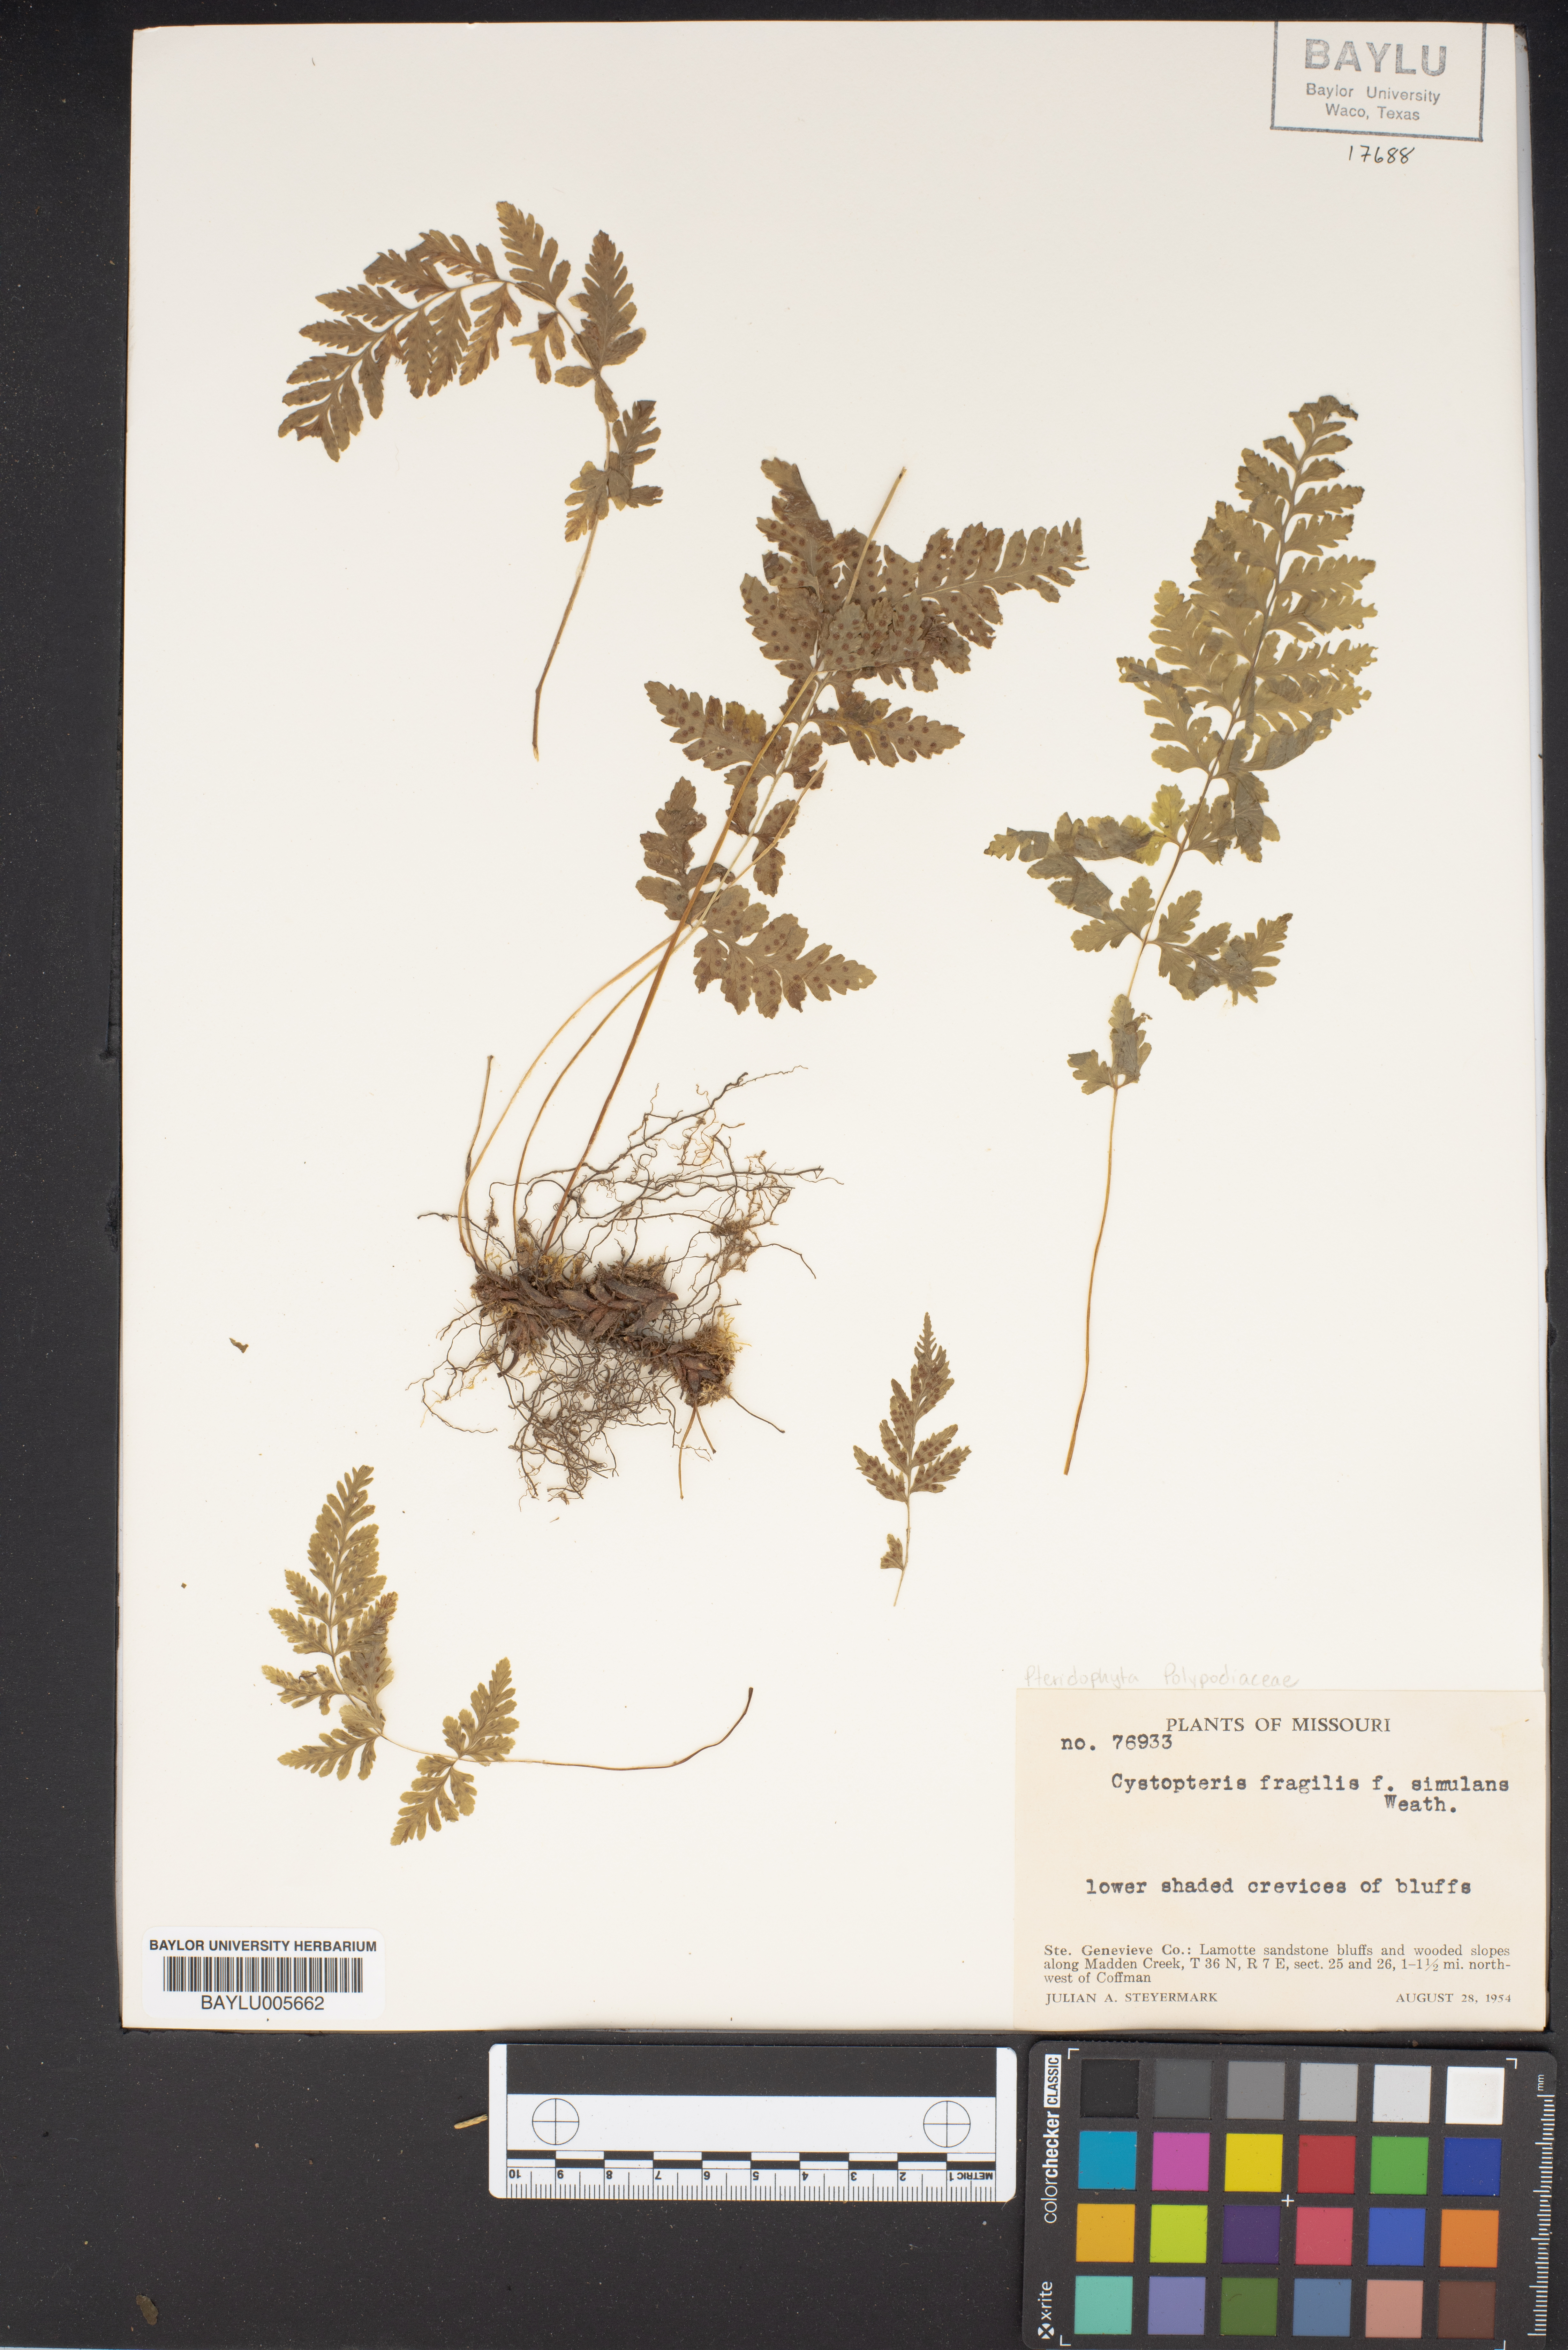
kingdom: Plantae
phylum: Tracheophyta
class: Polypodiopsida
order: Polypodiales
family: Cystopteridaceae
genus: Cystopteris
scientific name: Cystopteris tennesseensis
